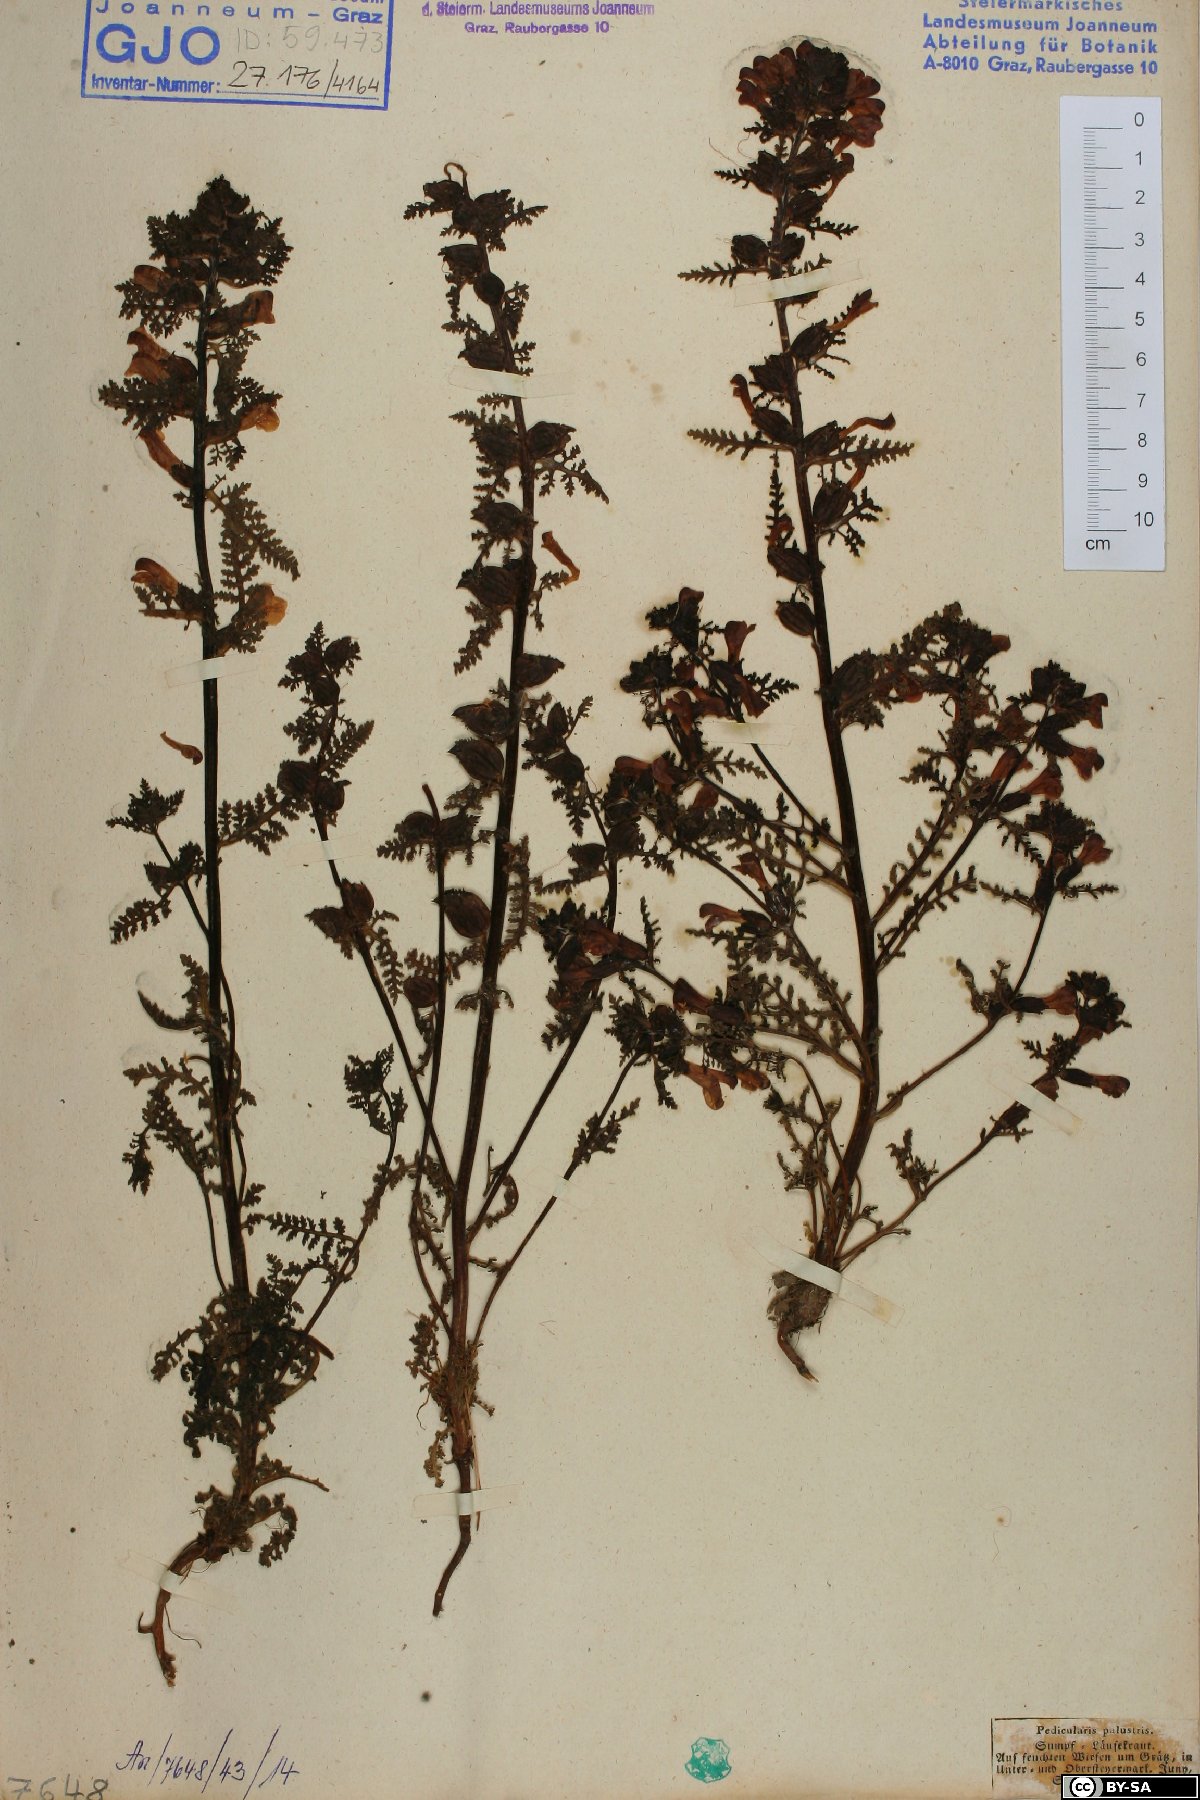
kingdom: Plantae
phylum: Tracheophyta
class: Magnoliopsida
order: Lamiales
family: Orobanchaceae
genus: Pedicularis
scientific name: Pedicularis palustris
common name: Marsh lousewort
